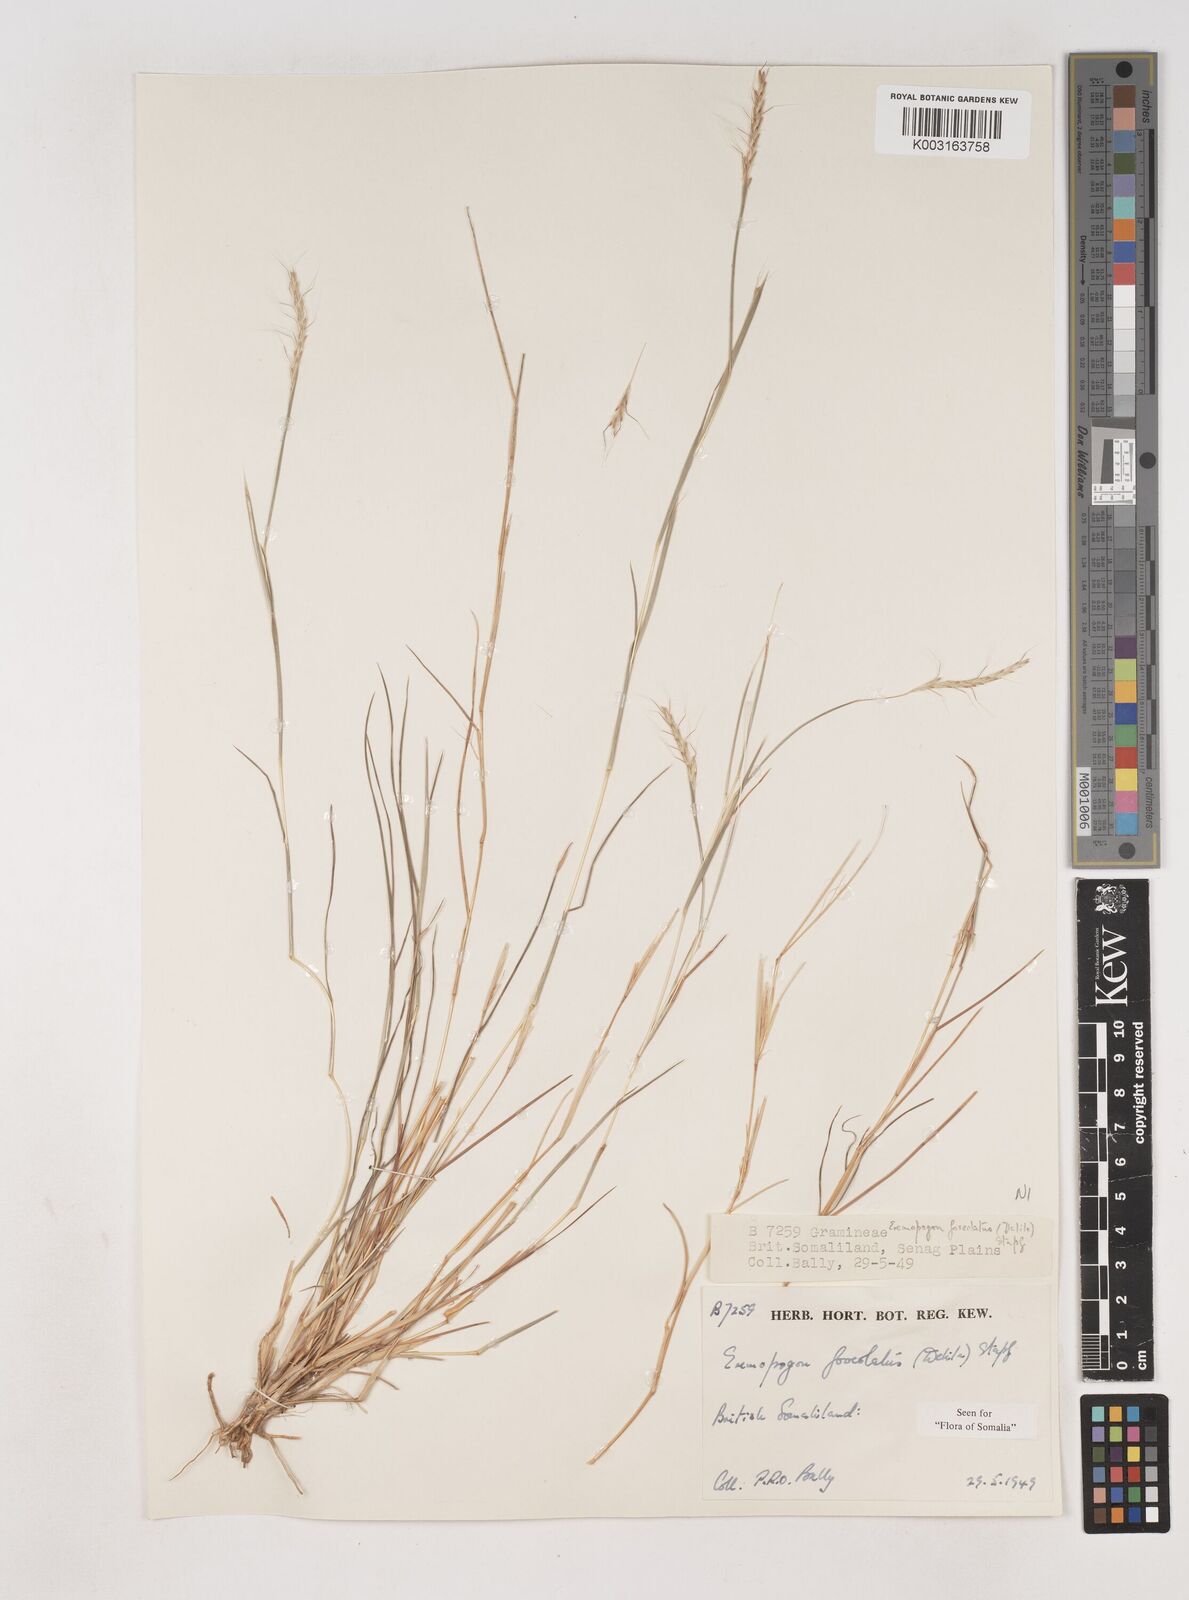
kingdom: Plantae
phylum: Tracheophyta
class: Liliopsida
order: Poales
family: Poaceae
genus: Dichanthium
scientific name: Dichanthium foveolatum
